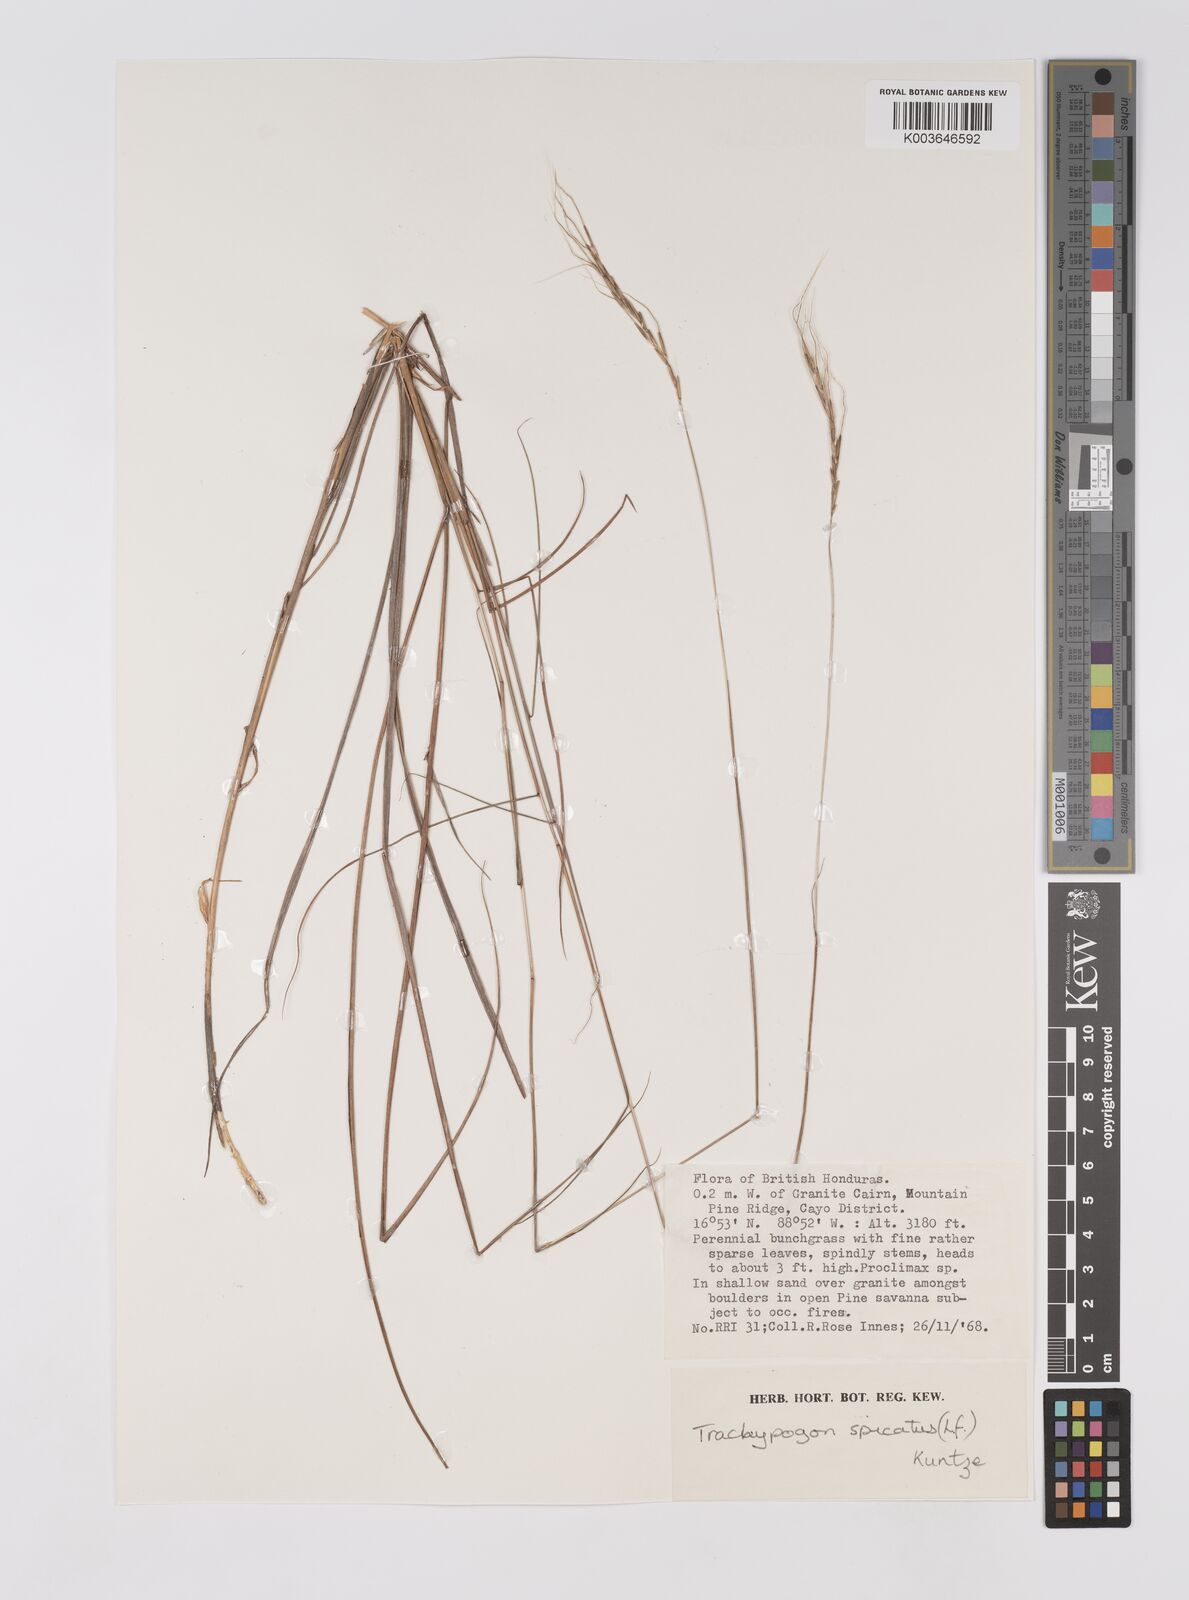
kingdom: Plantae
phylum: Tracheophyta
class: Liliopsida
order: Poales
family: Poaceae
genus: Trachypogon
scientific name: Trachypogon spicatus
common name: Crinkle-awn
